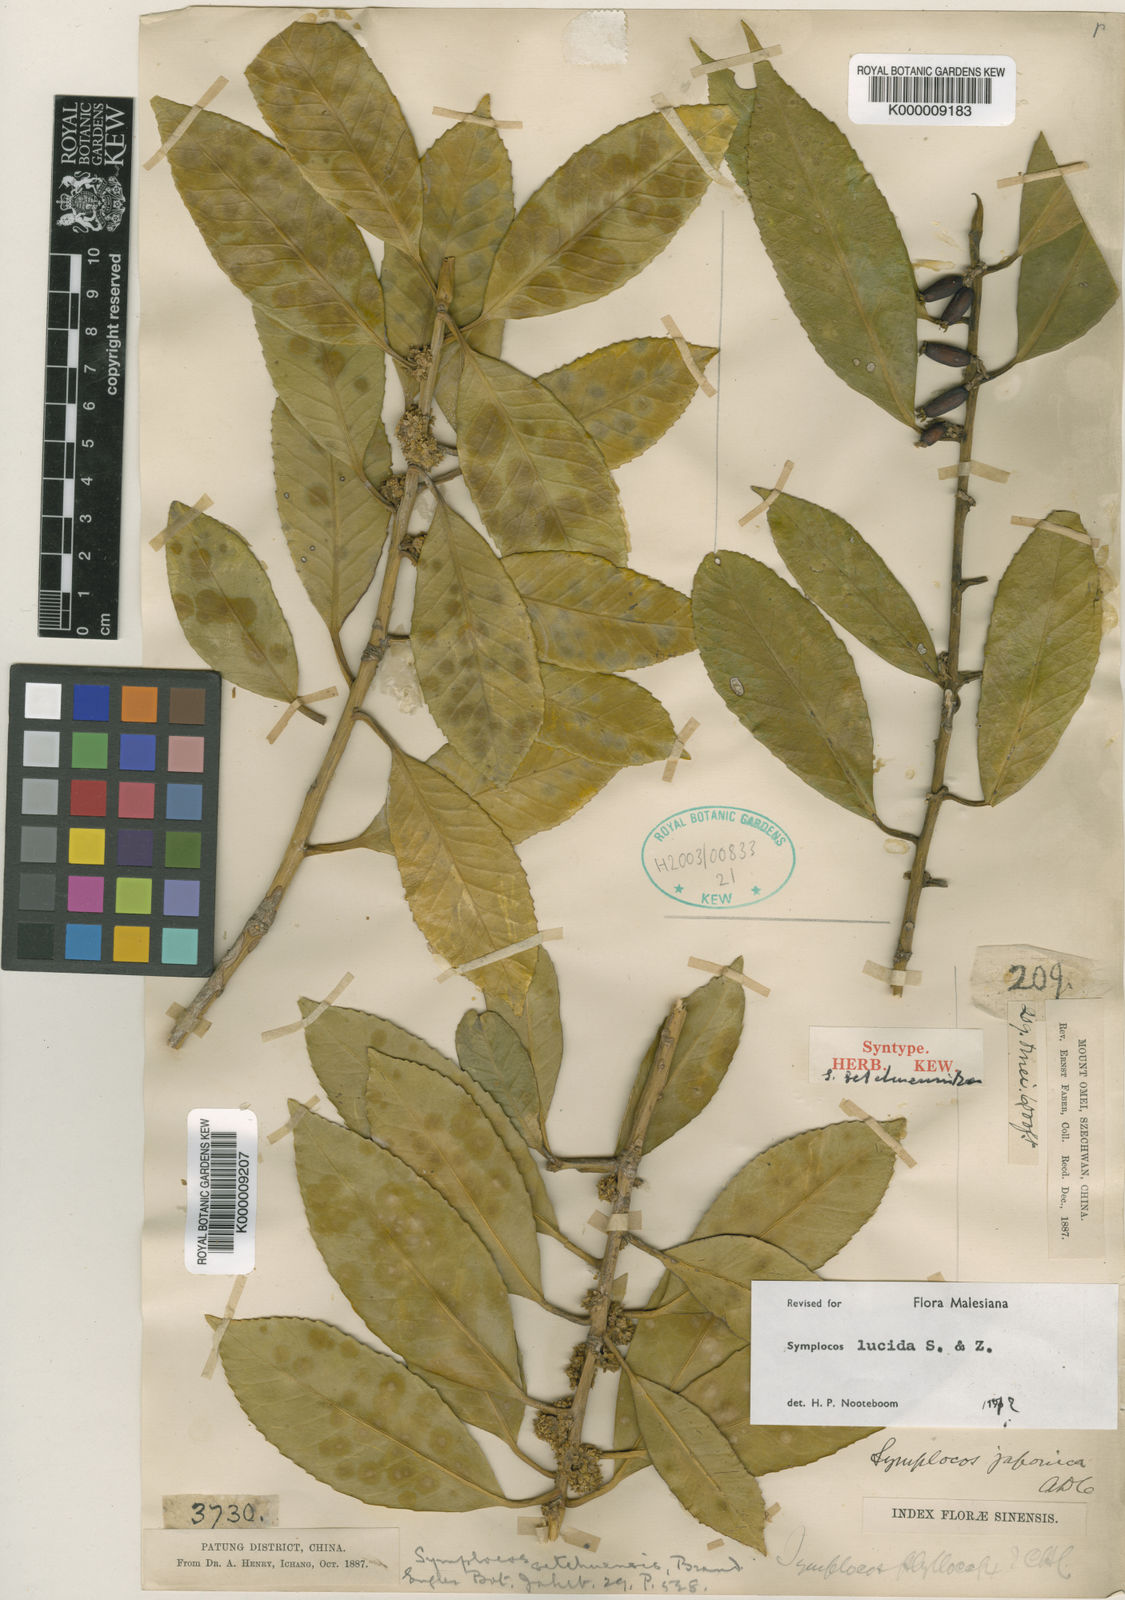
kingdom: Plantae
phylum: Tracheophyta
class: Magnoliopsida
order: Ericales
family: Symplocaceae
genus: Symplocos
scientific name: Symplocos nakaharae
